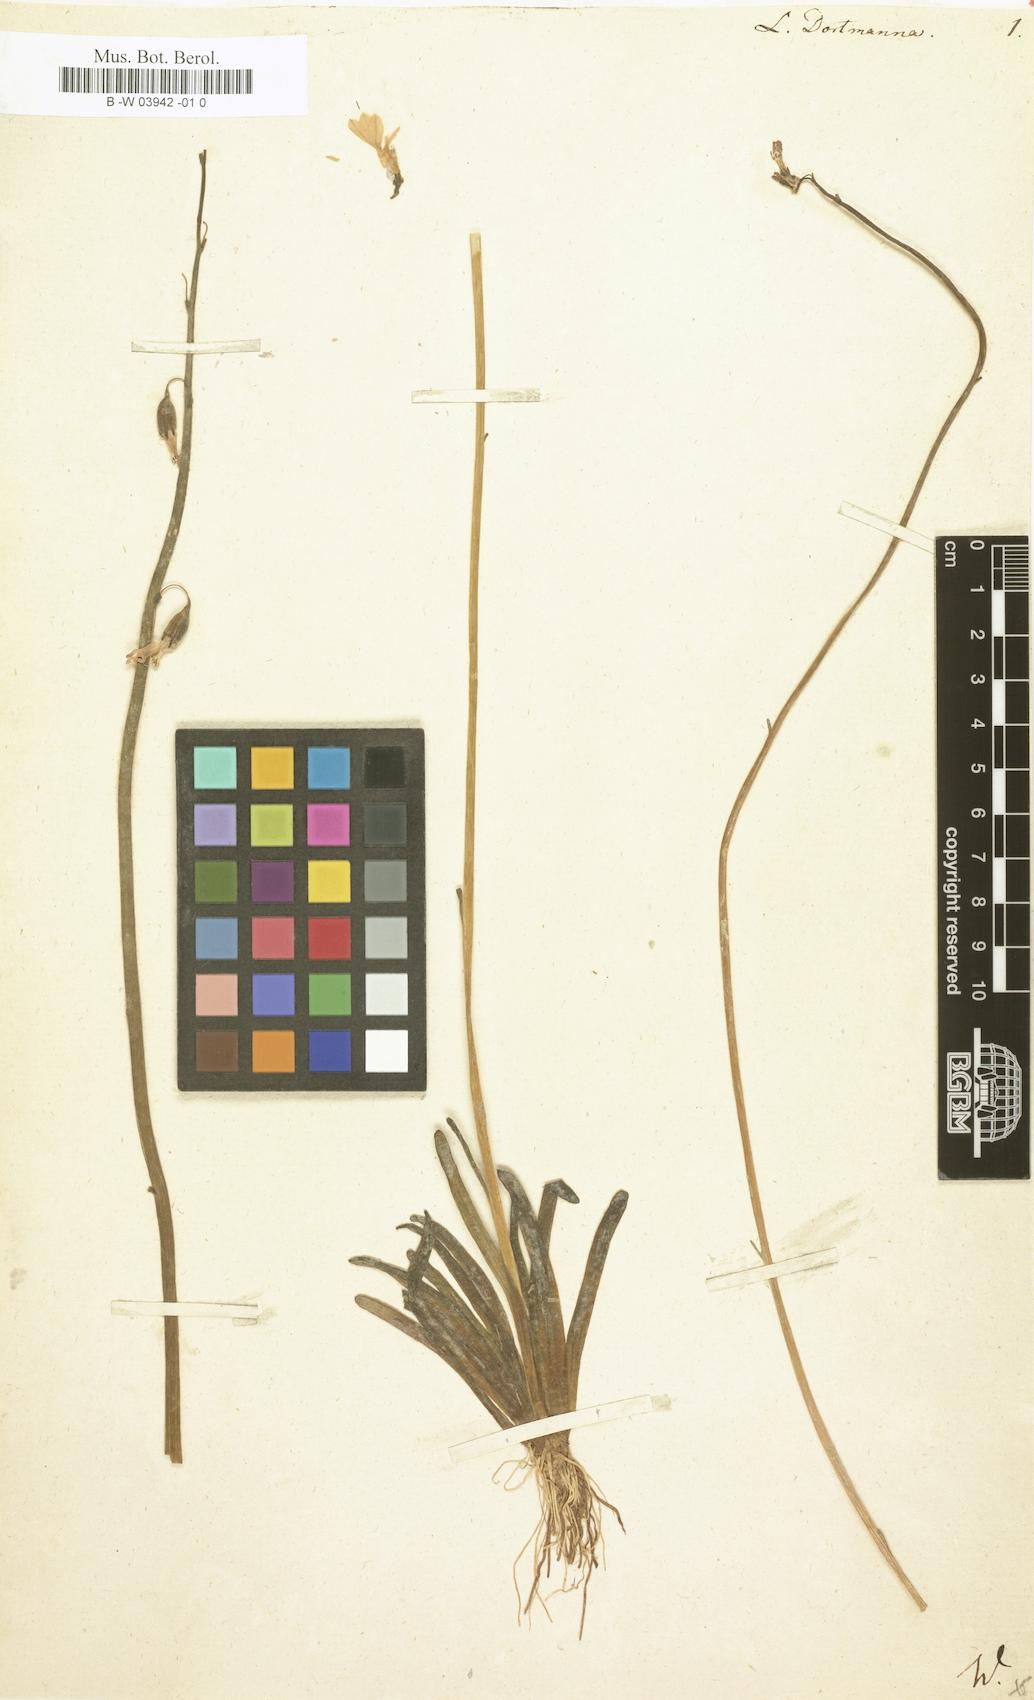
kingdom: Plantae
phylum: Tracheophyta
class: Magnoliopsida
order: Asterales
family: Campanulaceae
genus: Lobelia
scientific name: Lobelia dortmanna
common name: Water lobelia
